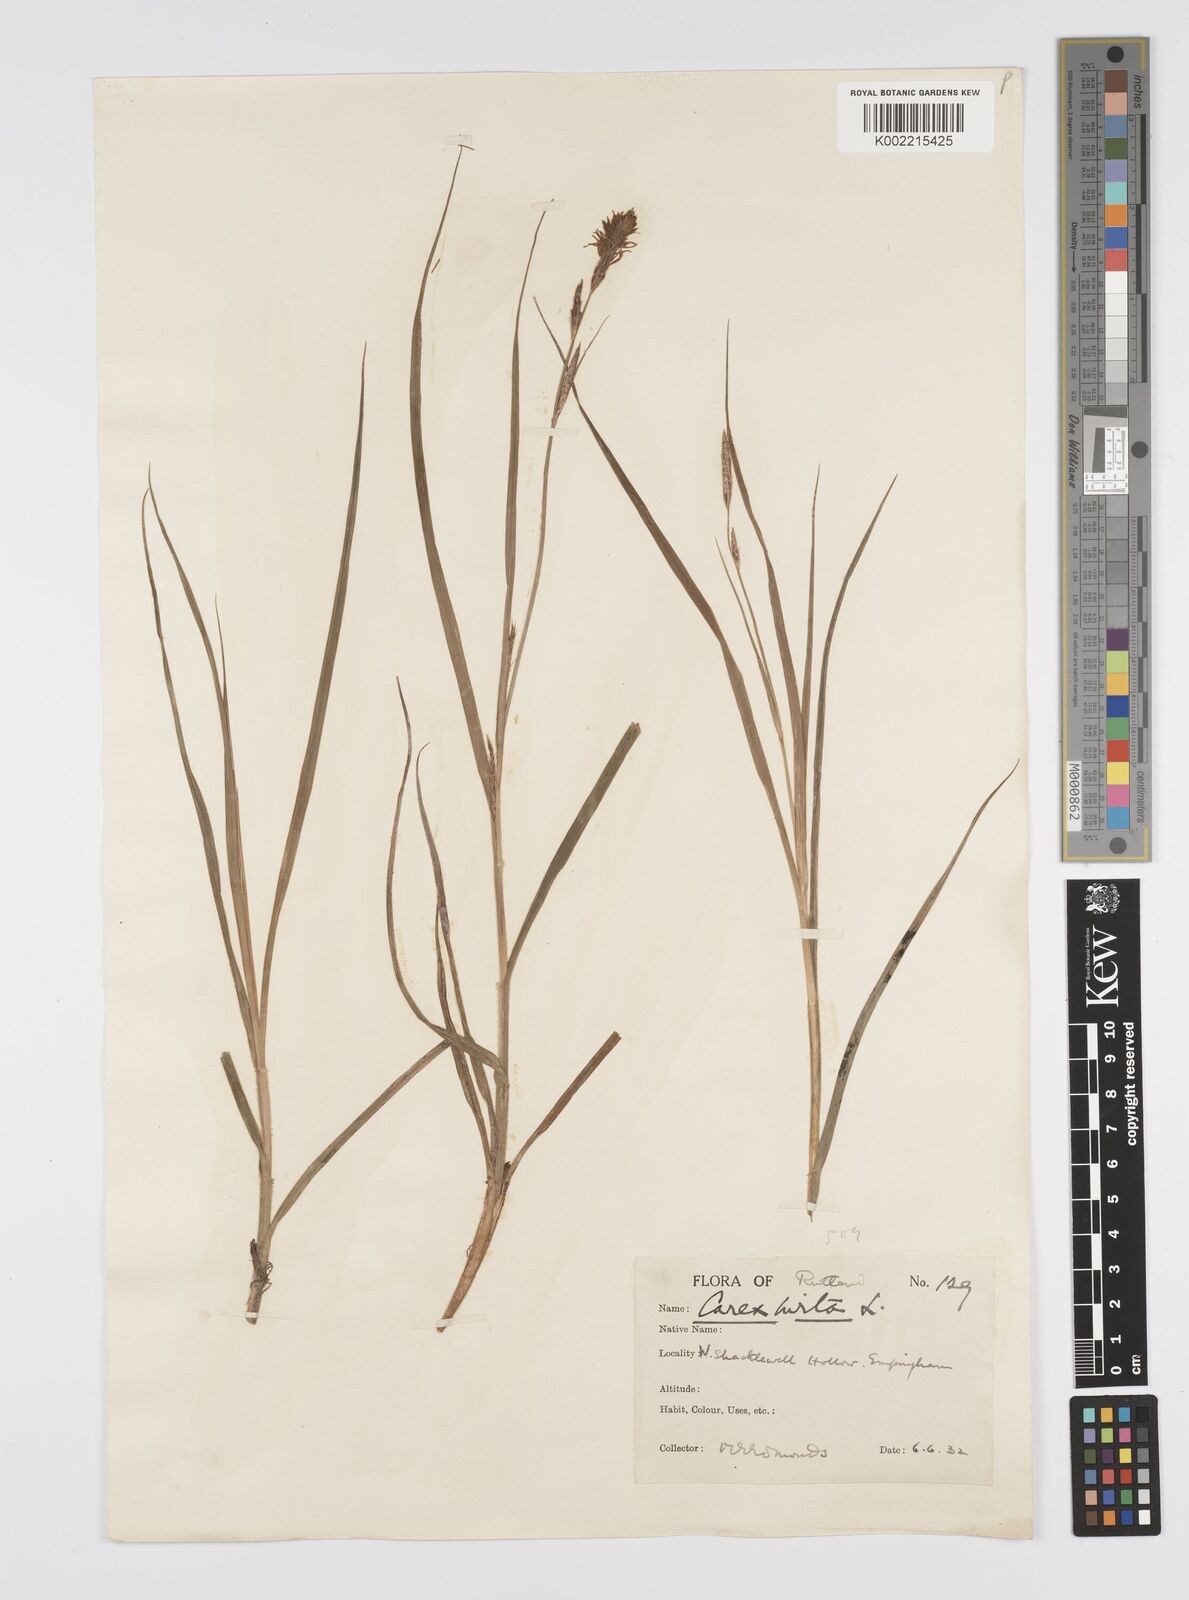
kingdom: Plantae
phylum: Tracheophyta
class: Liliopsida
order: Poales
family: Cyperaceae
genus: Carex
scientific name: Carex hirta
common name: Hairy sedge
